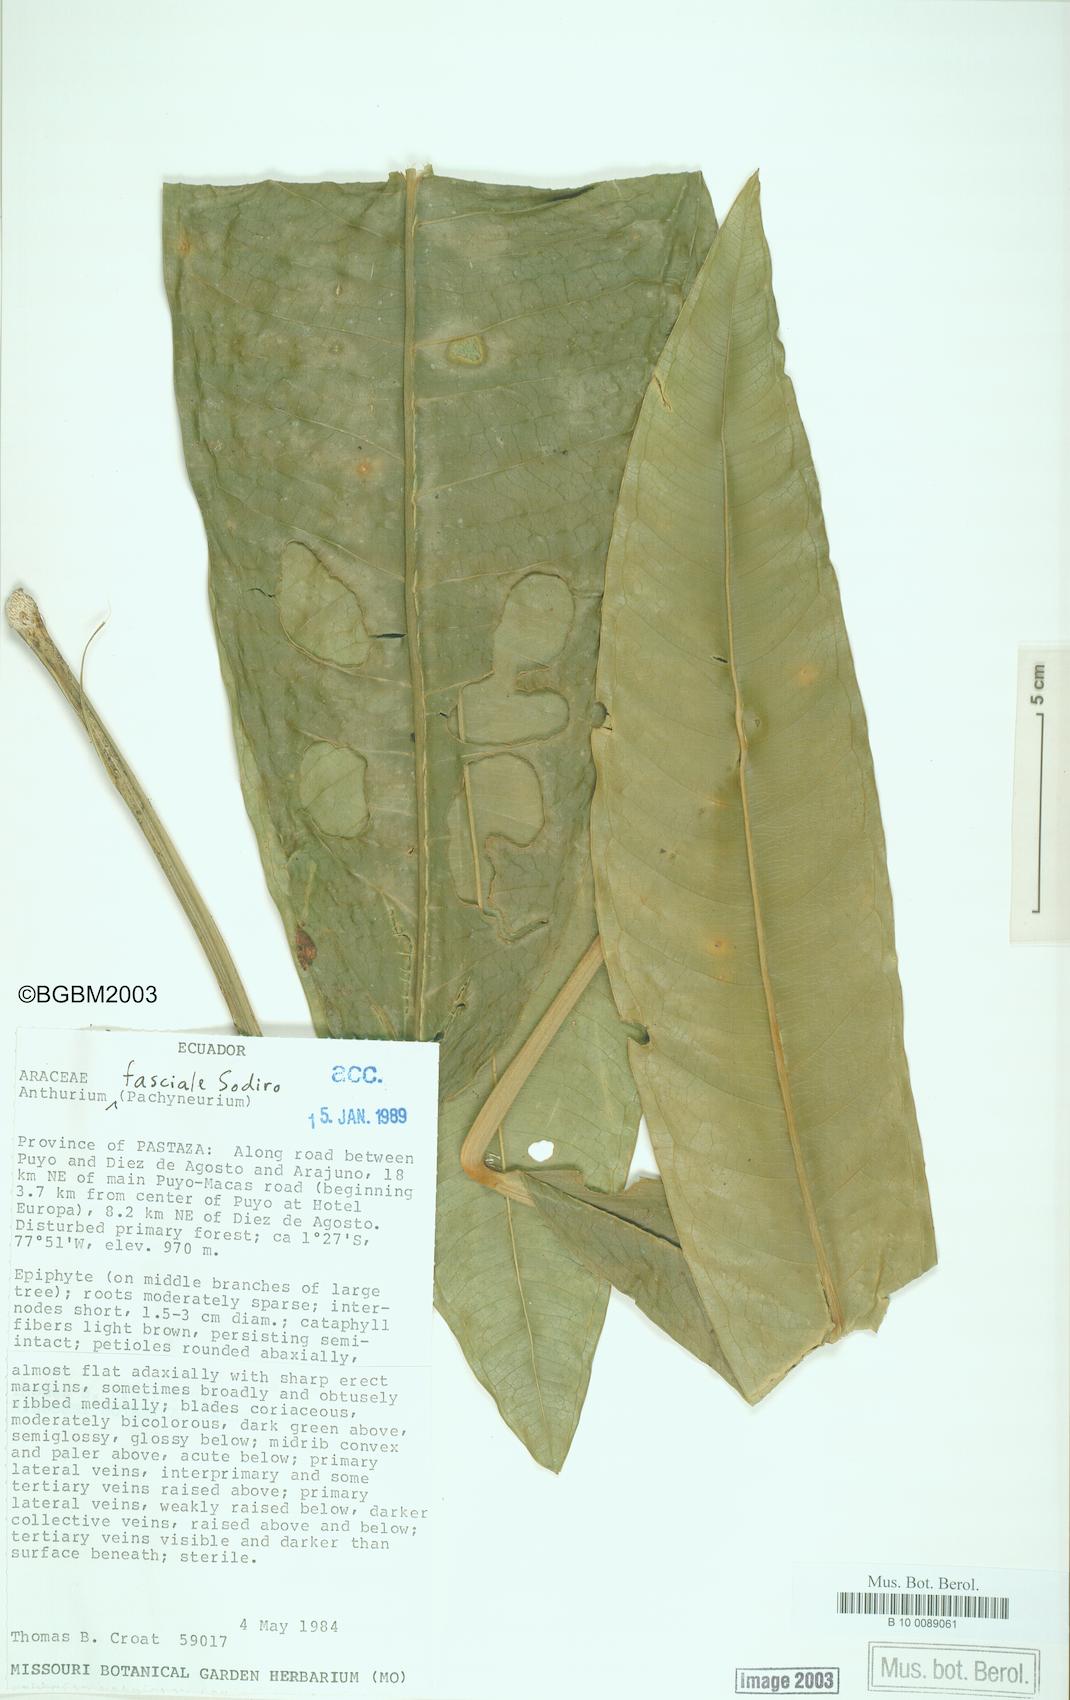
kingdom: Plantae
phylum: Tracheophyta
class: Liliopsida
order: Alismatales
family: Araceae
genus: Anthurium
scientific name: Anthurium fasciale
